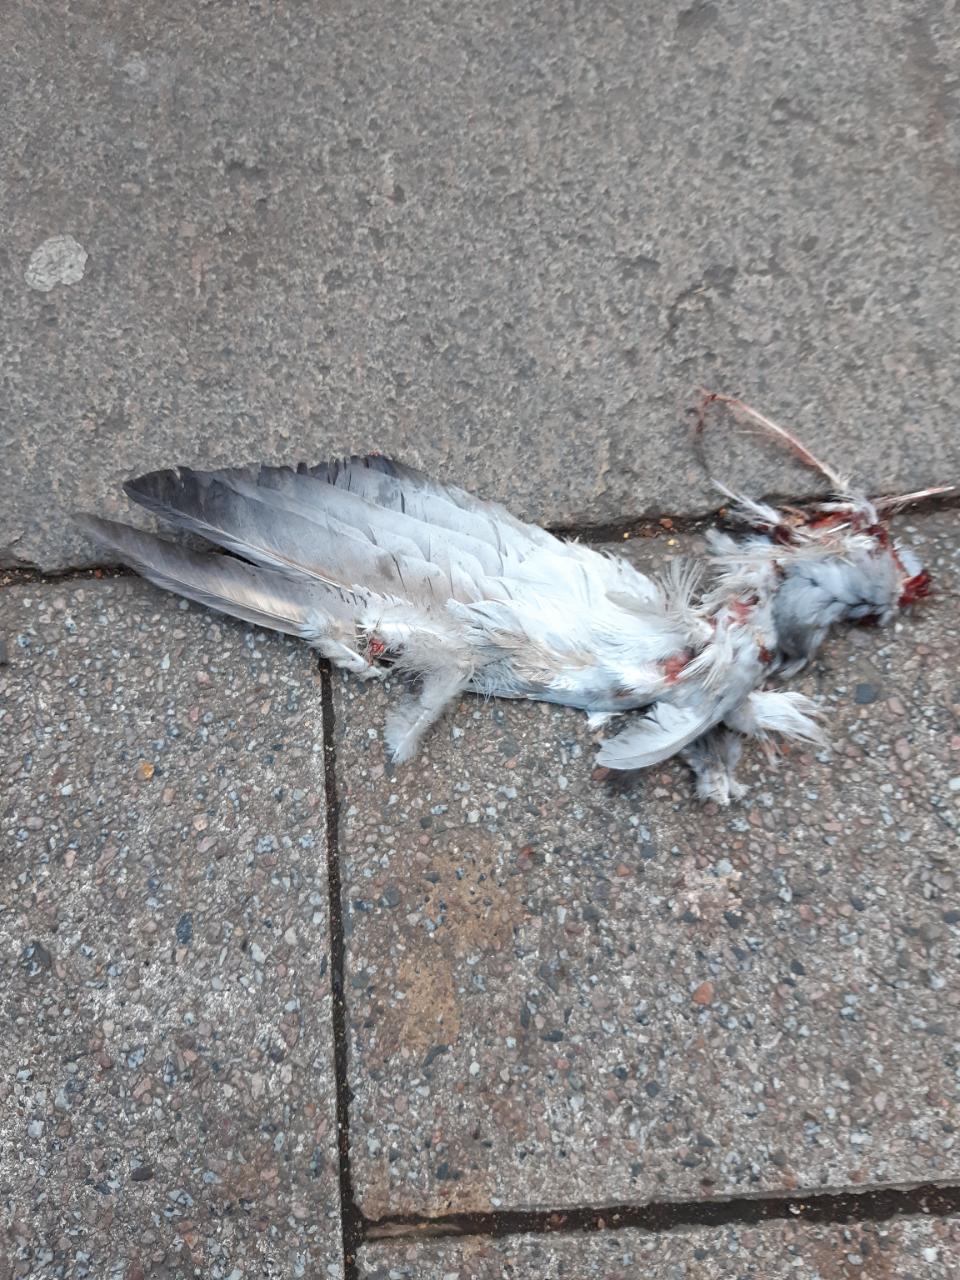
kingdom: Animalia
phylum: Chordata
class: Aves
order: Columbiformes
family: Columbidae
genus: Columba
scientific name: Columba livia
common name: Rock pigeon
